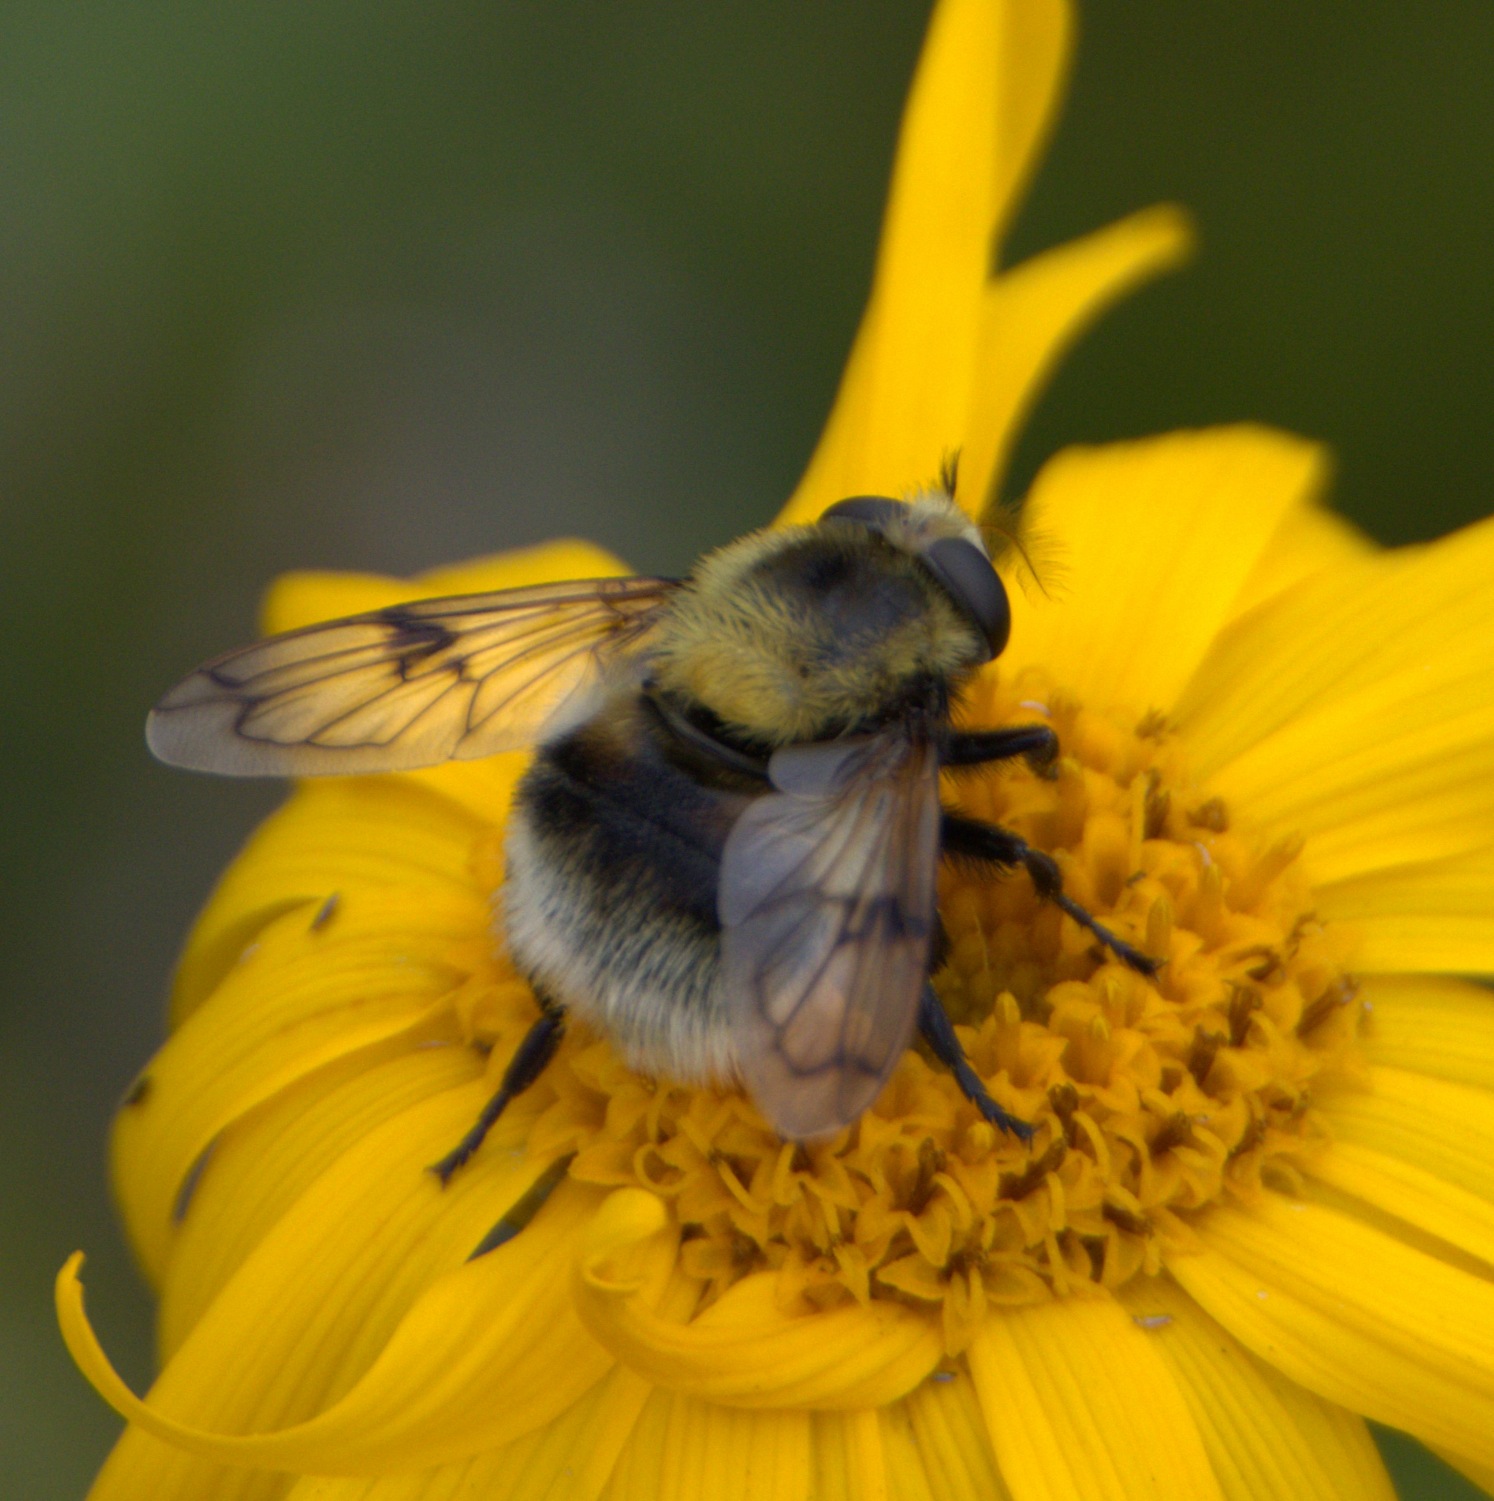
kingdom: Animalia
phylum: Arthropoda
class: Insecta
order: Diptera
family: Syrphidae
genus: Volucella
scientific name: Volucella bombylans
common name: Foranderlig humlesvirreflue
